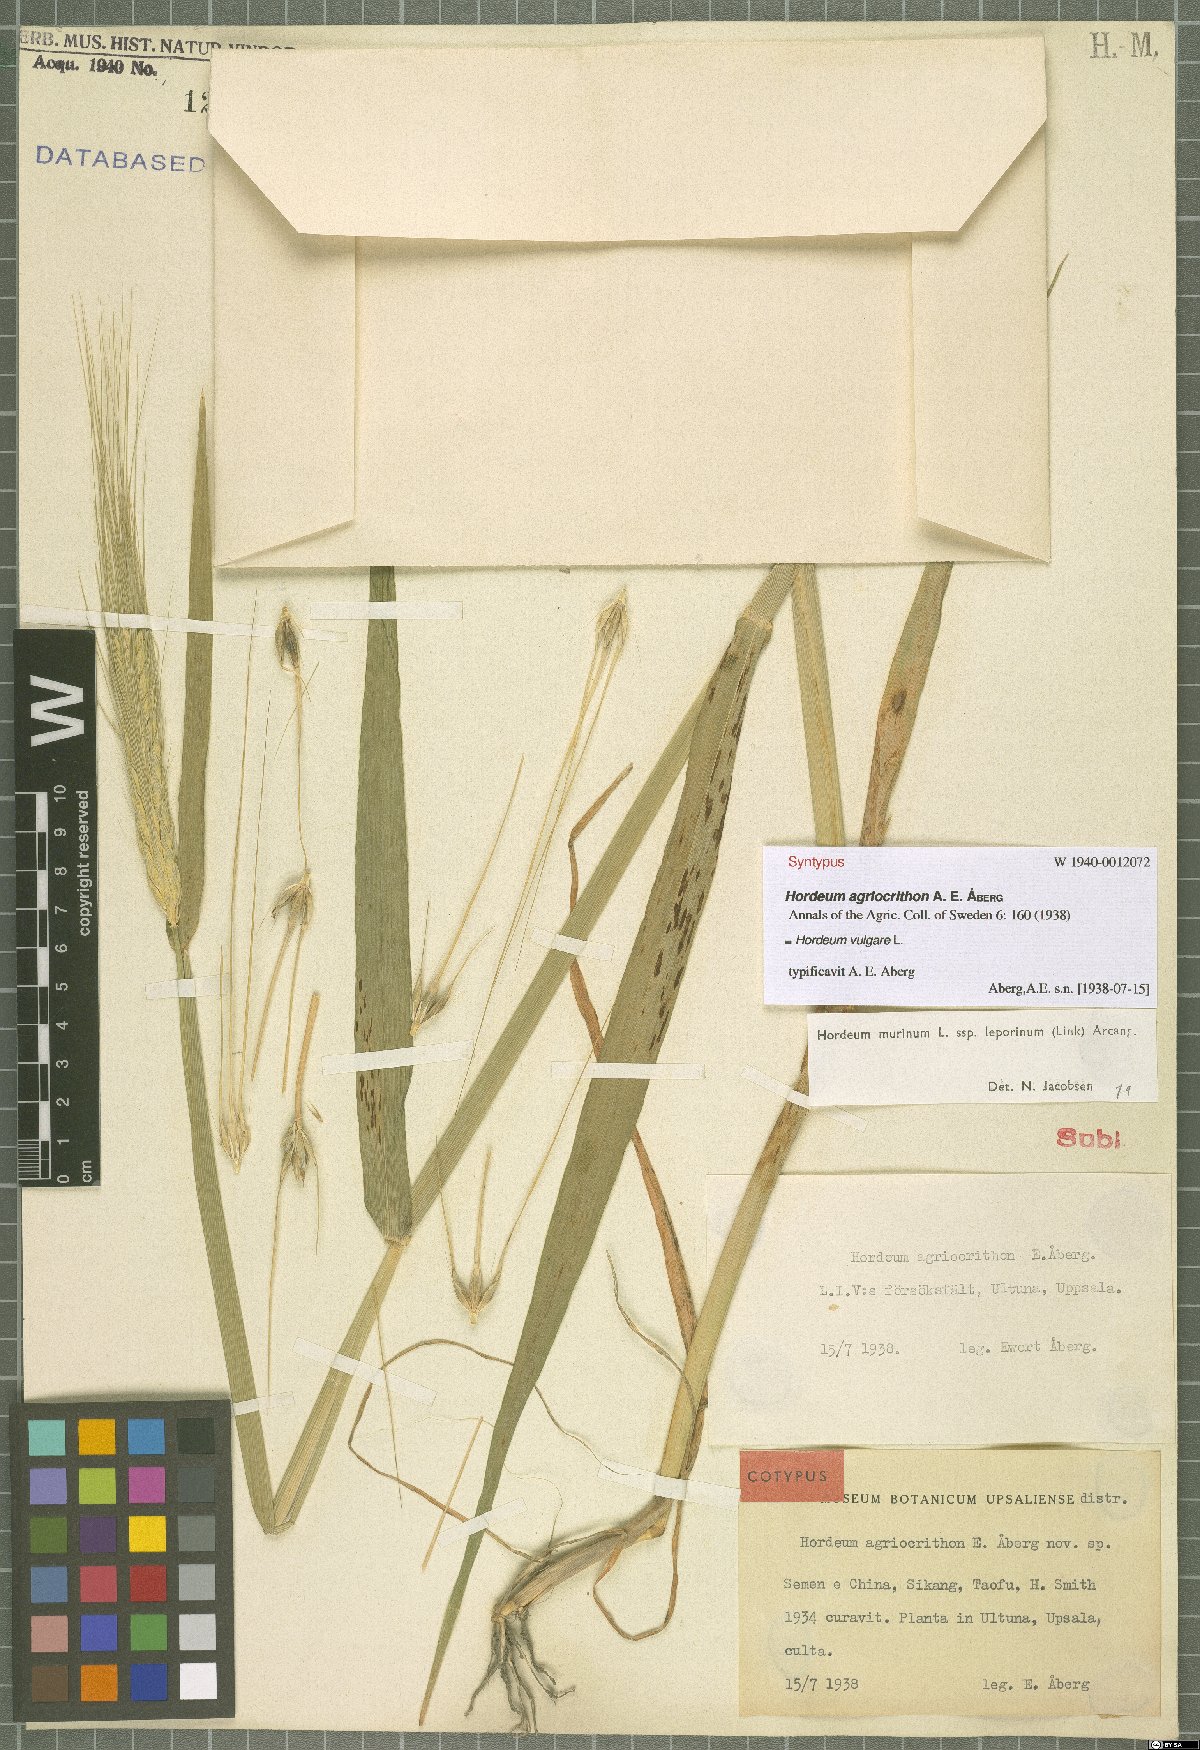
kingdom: Plantae
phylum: Tracheophyta
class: Liliopsida
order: Poales
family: Poaceae
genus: Hordeum
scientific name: Hordeum vulgare
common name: Common barley
